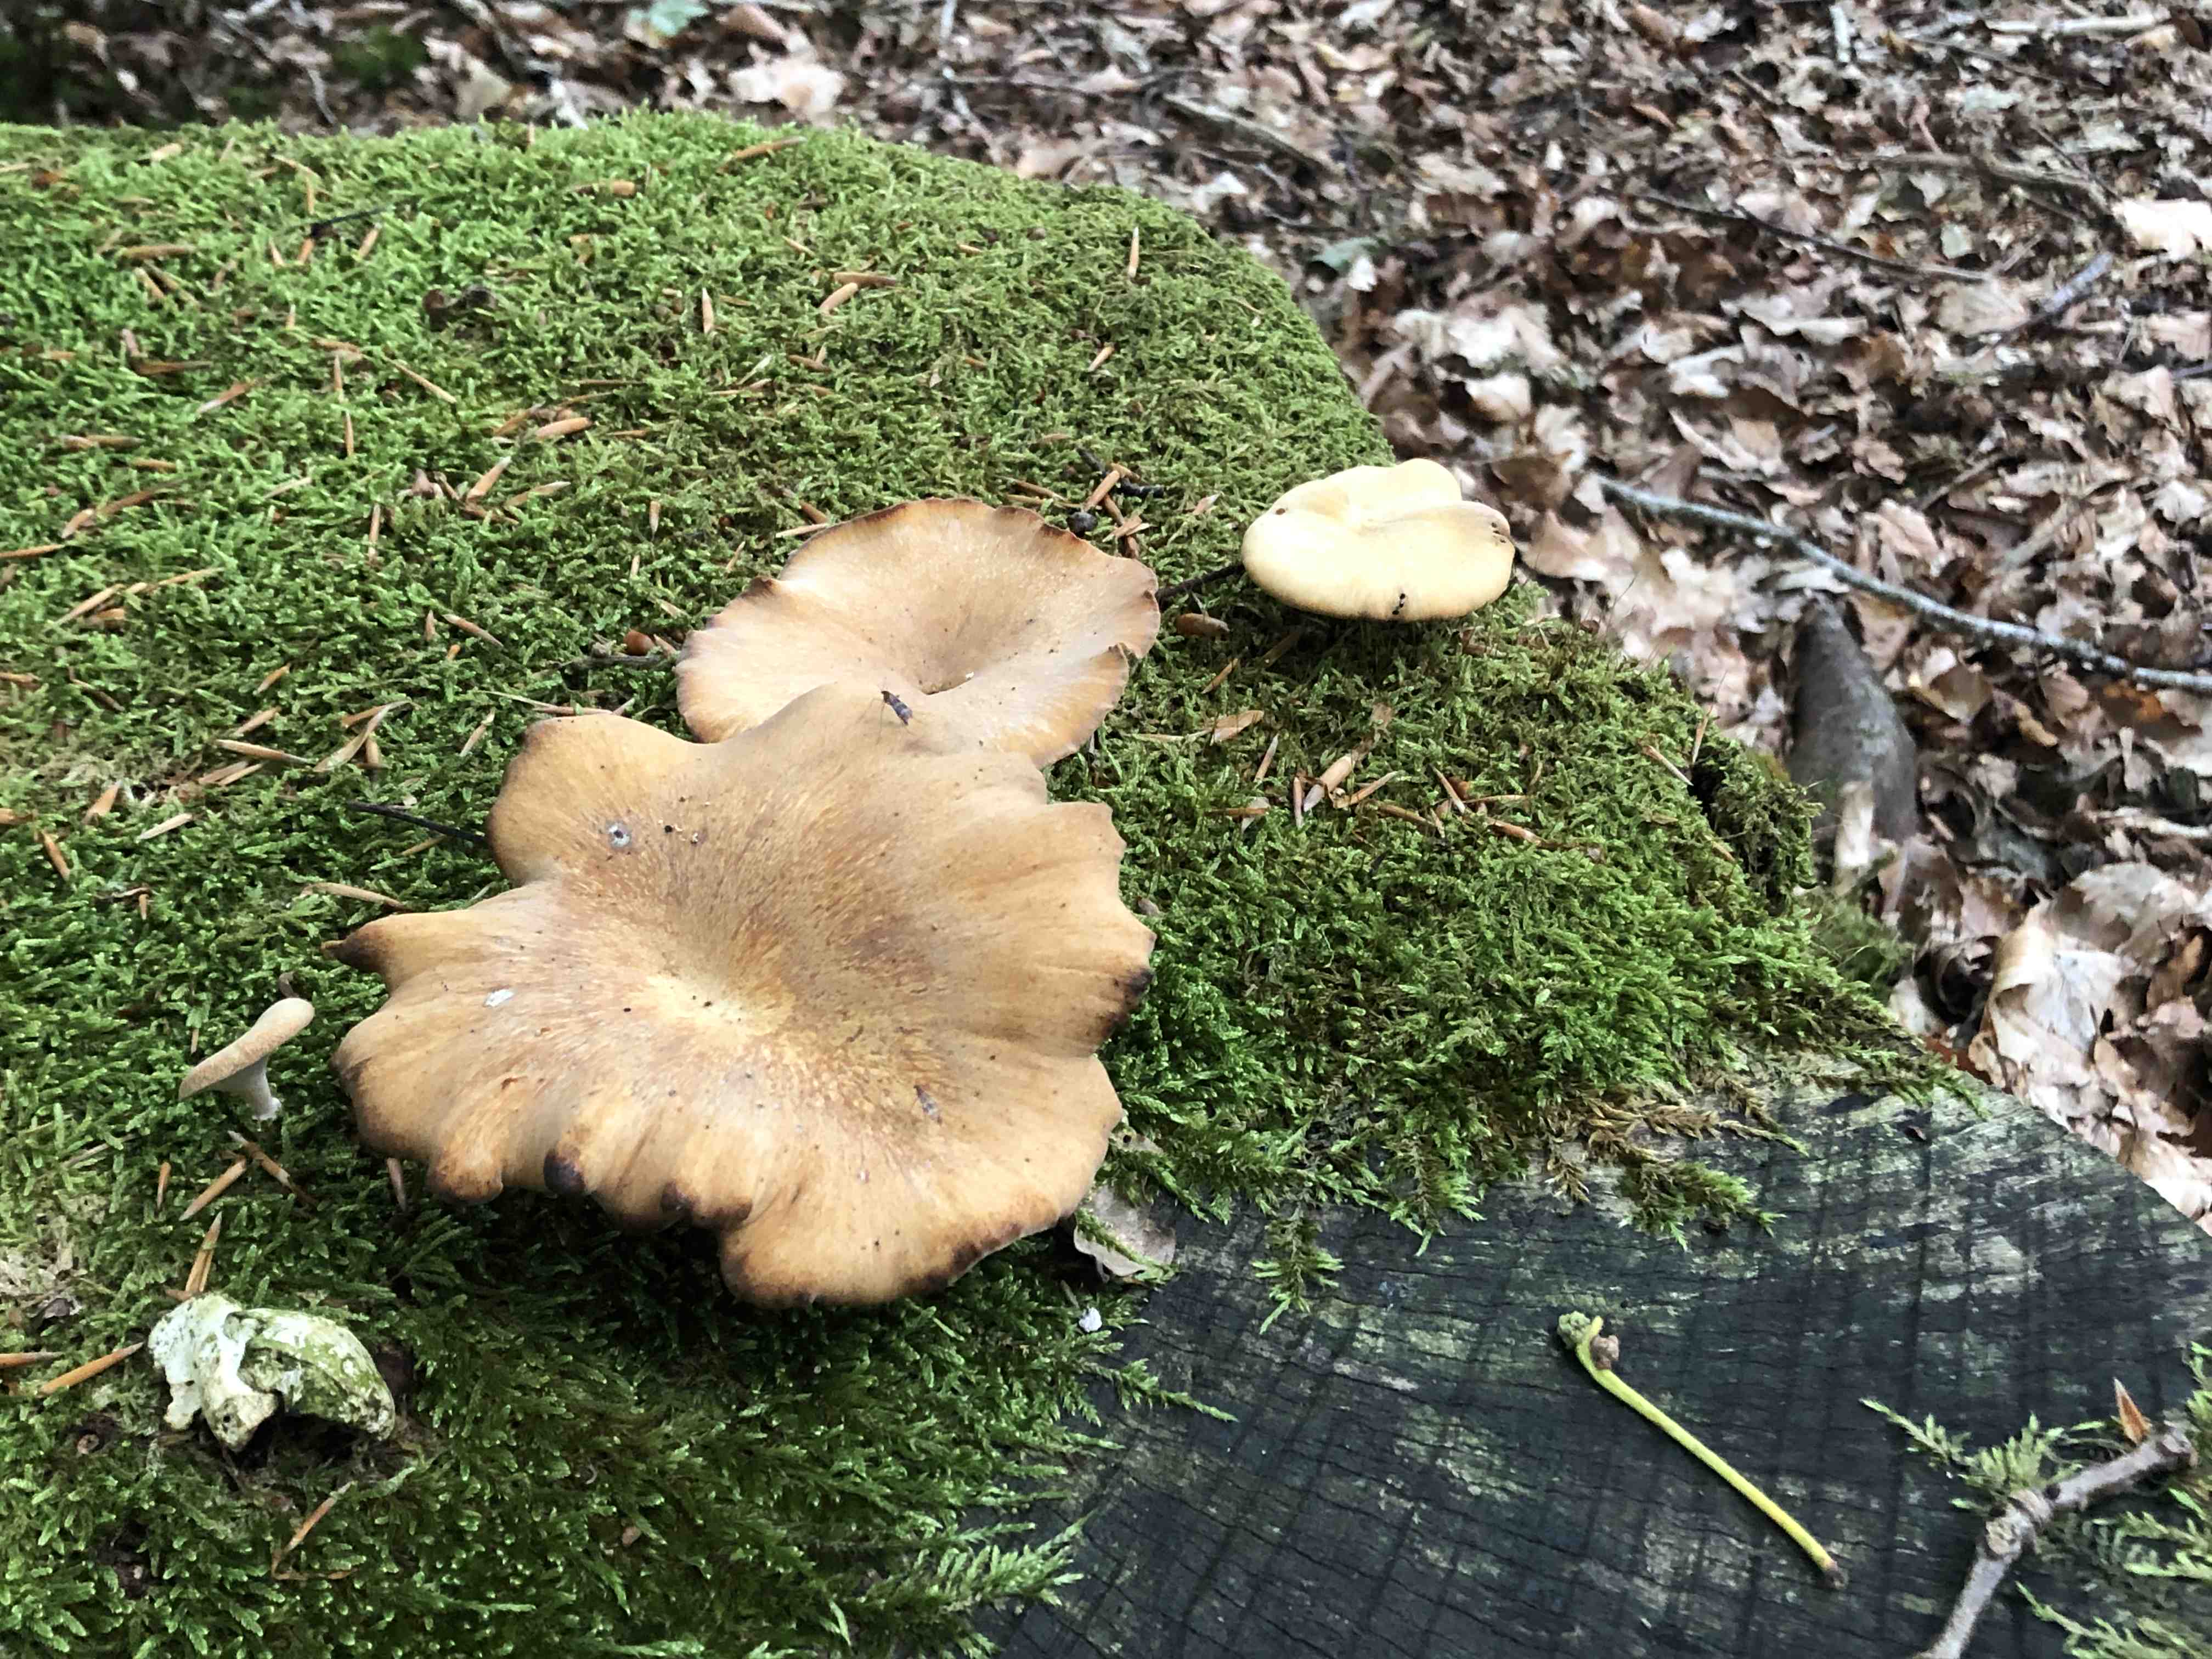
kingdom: Fungi
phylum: Basidiomycota
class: Agaricomycetes
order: Polyporales
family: Polyporaceae
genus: Cerioporus
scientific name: Cerioporus varius
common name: foranderlig stilkporesvamp
